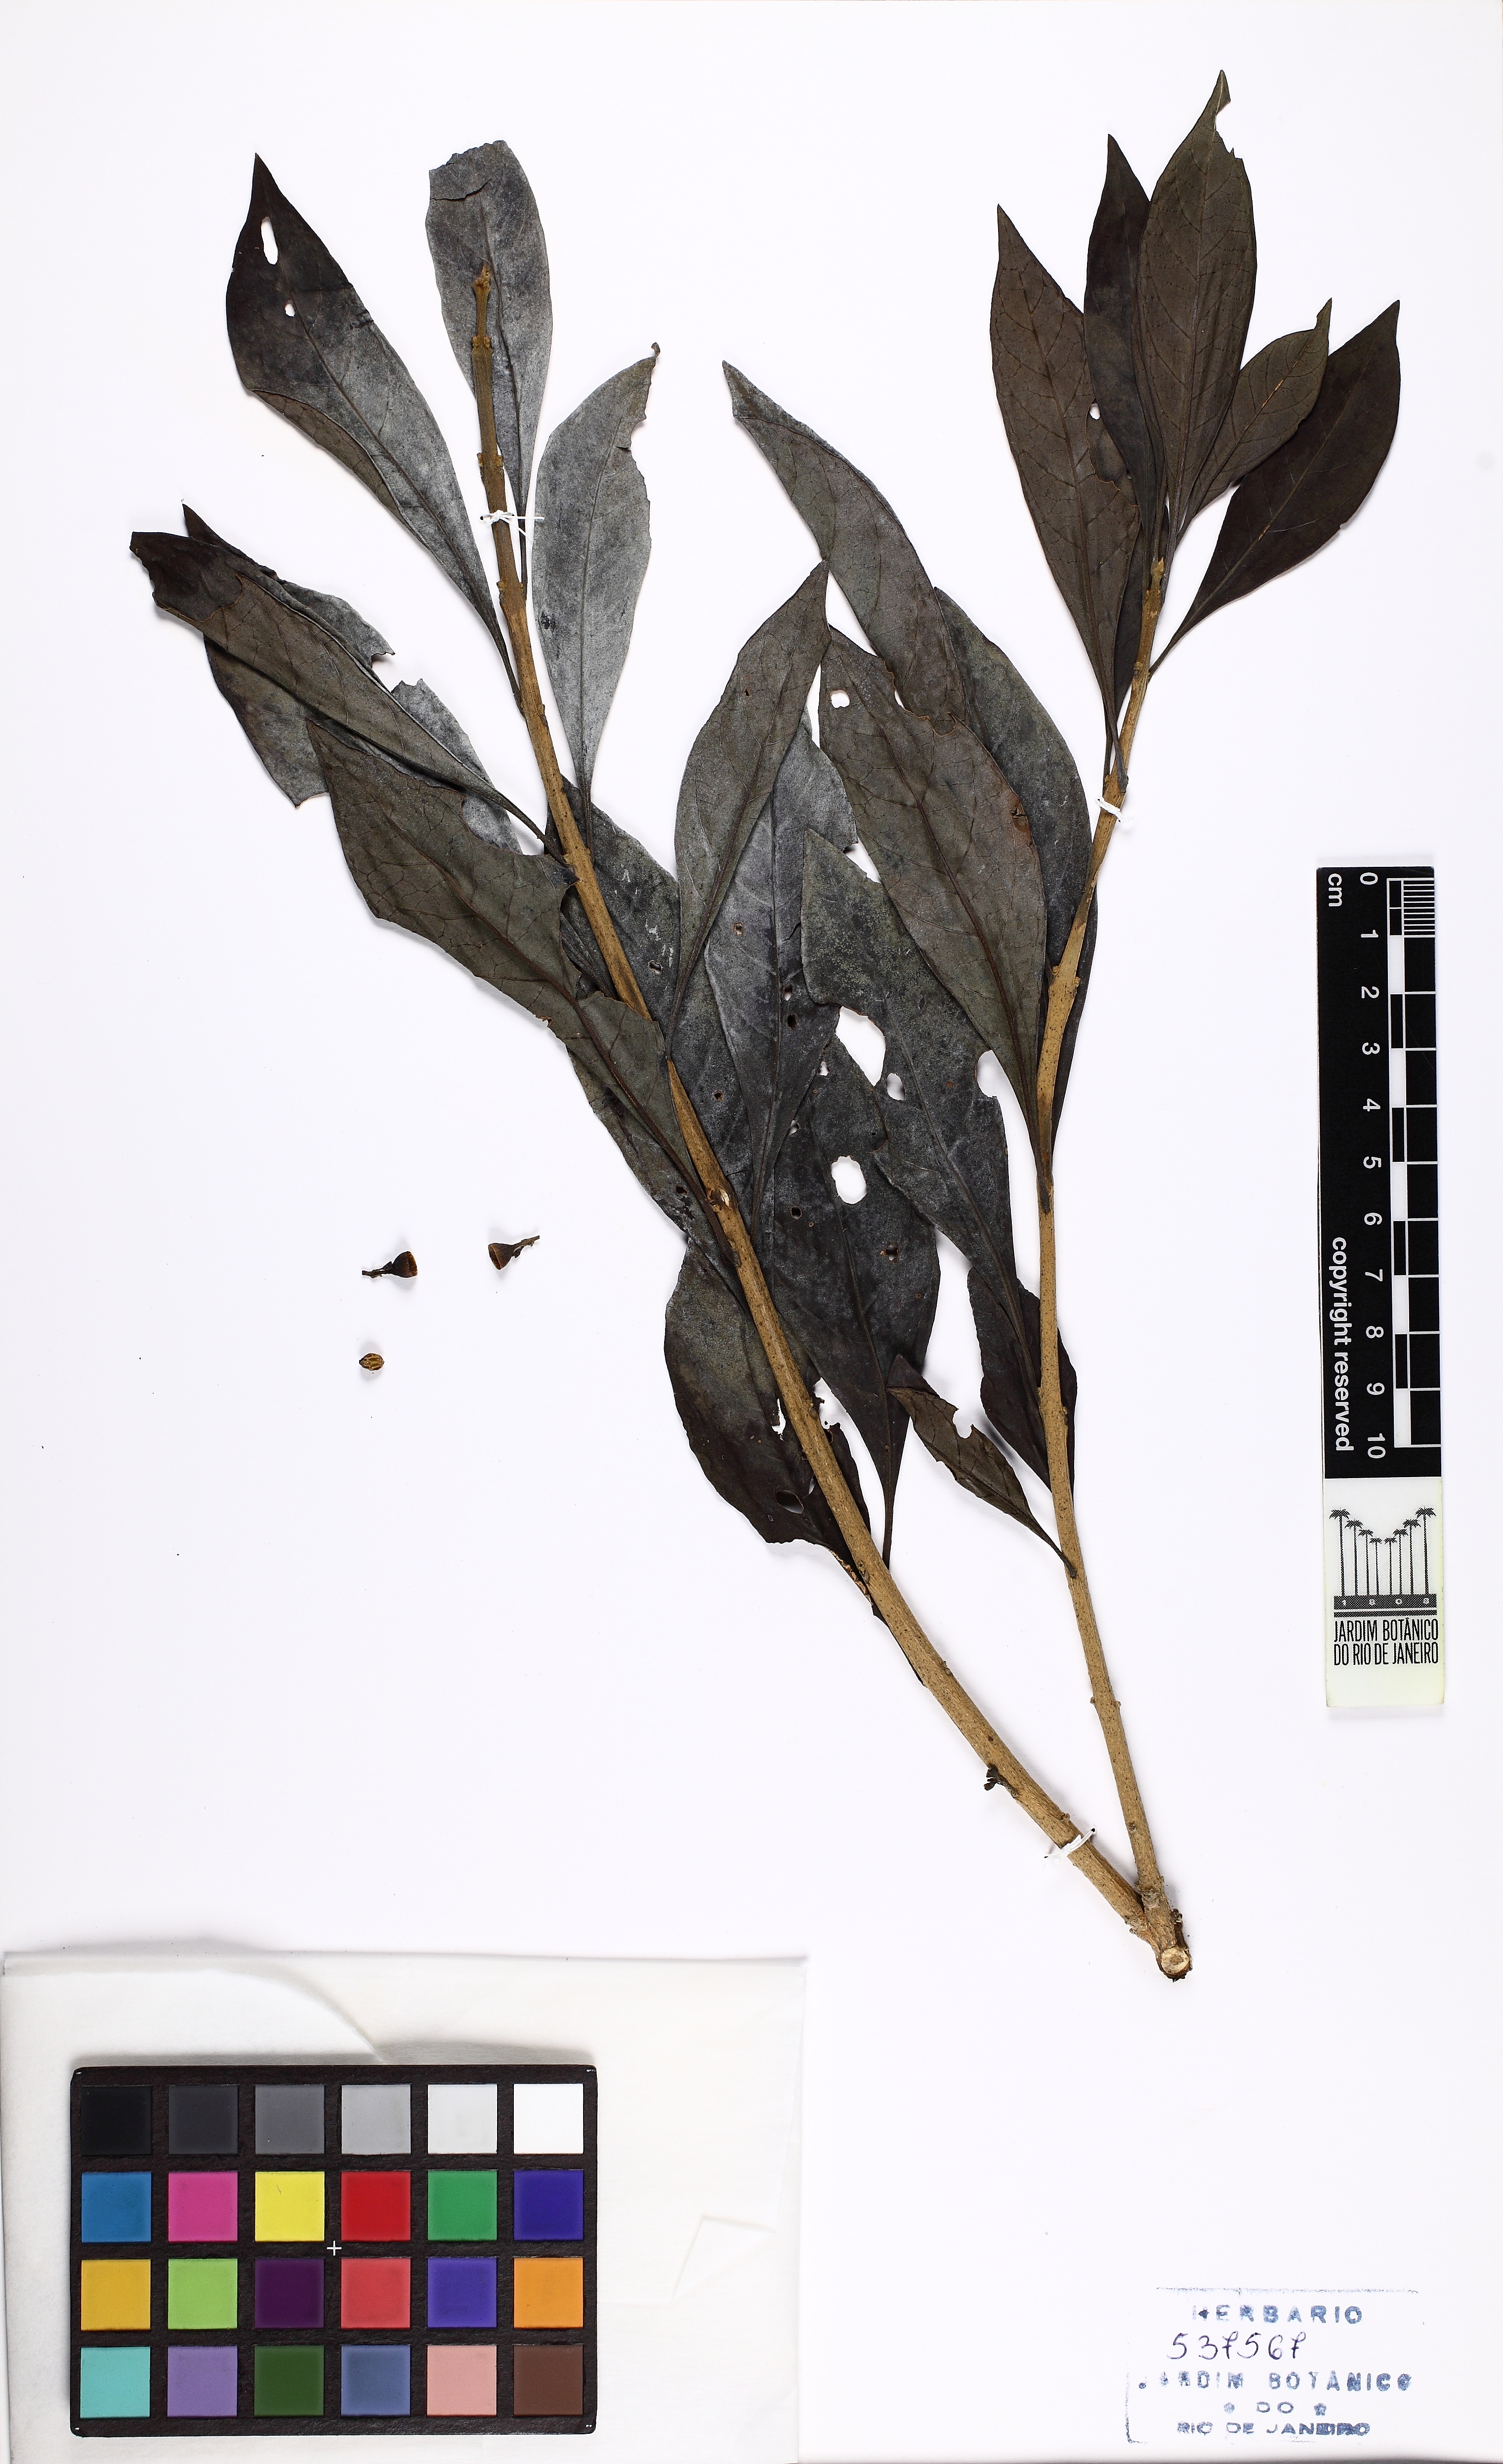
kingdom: Plantae
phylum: Tracheophyta
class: Magnoliopsida
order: Lamiales
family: Lamiaceae
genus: Aegiphila
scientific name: Aegiphila
